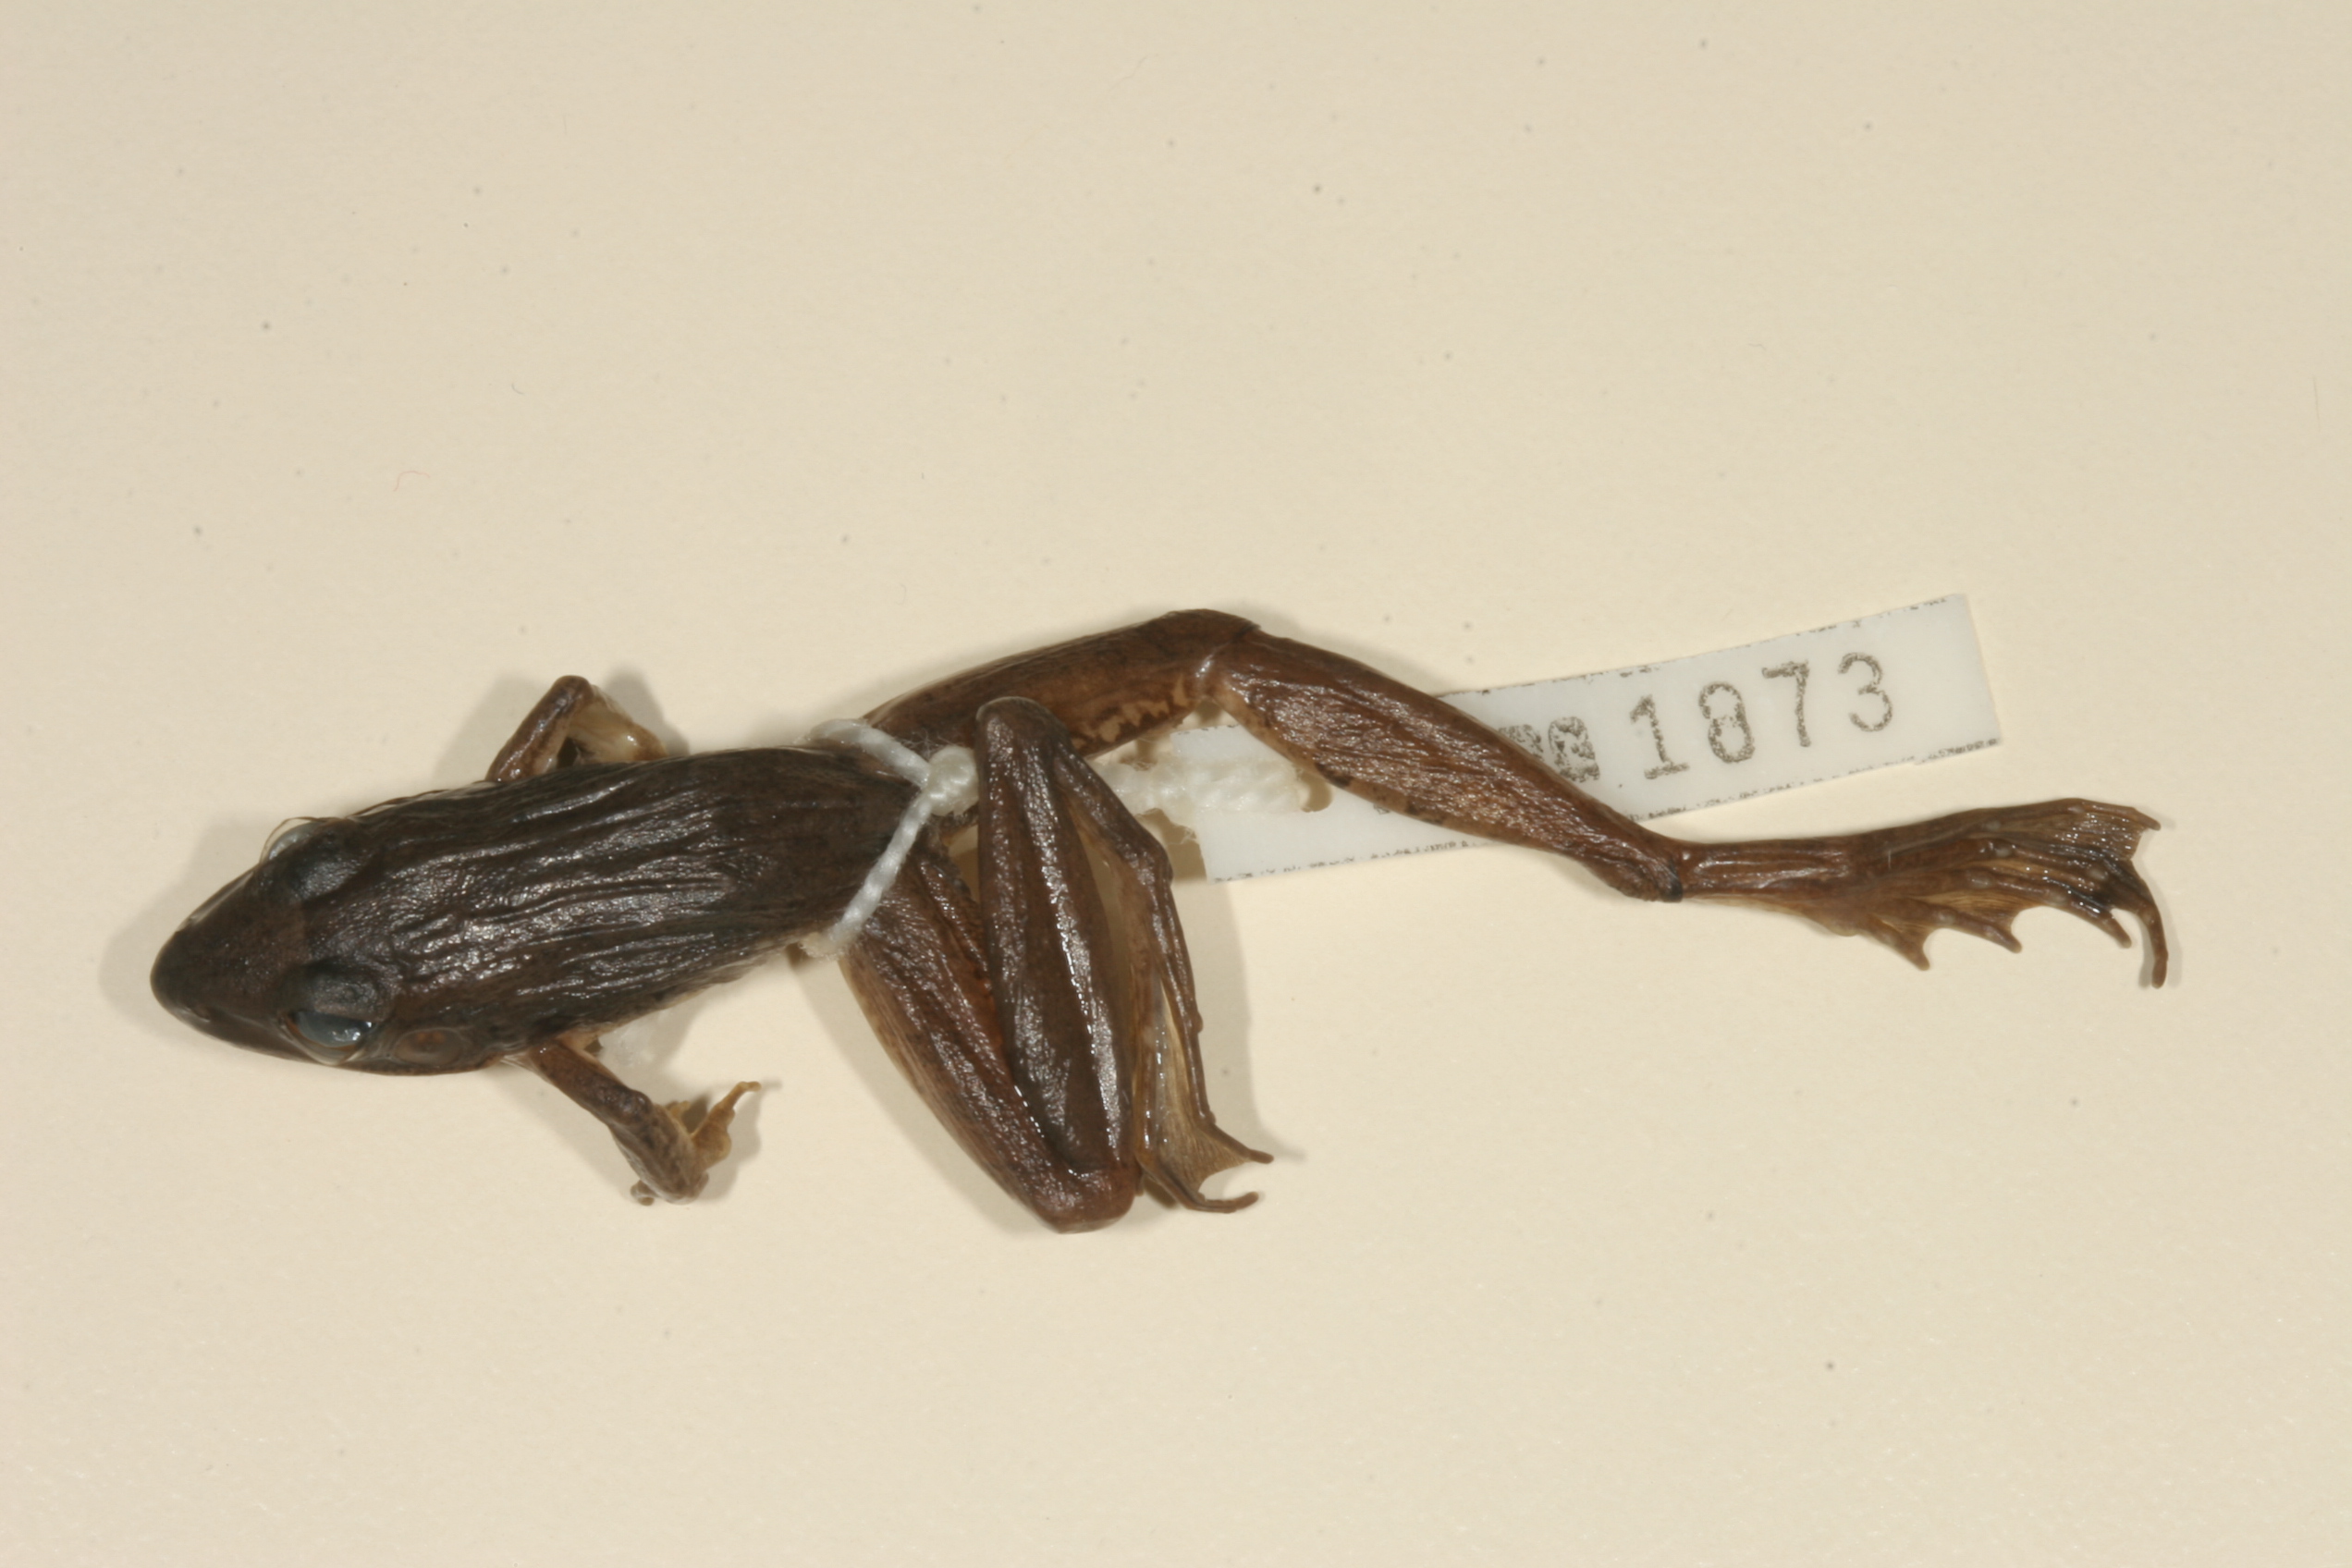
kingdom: Animalia
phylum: Chordata
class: Amphibia
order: Anura
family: Ptychadenidae
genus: Ptychadena
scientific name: Ptychadena anchietae
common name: Anchieta's ridged frog
